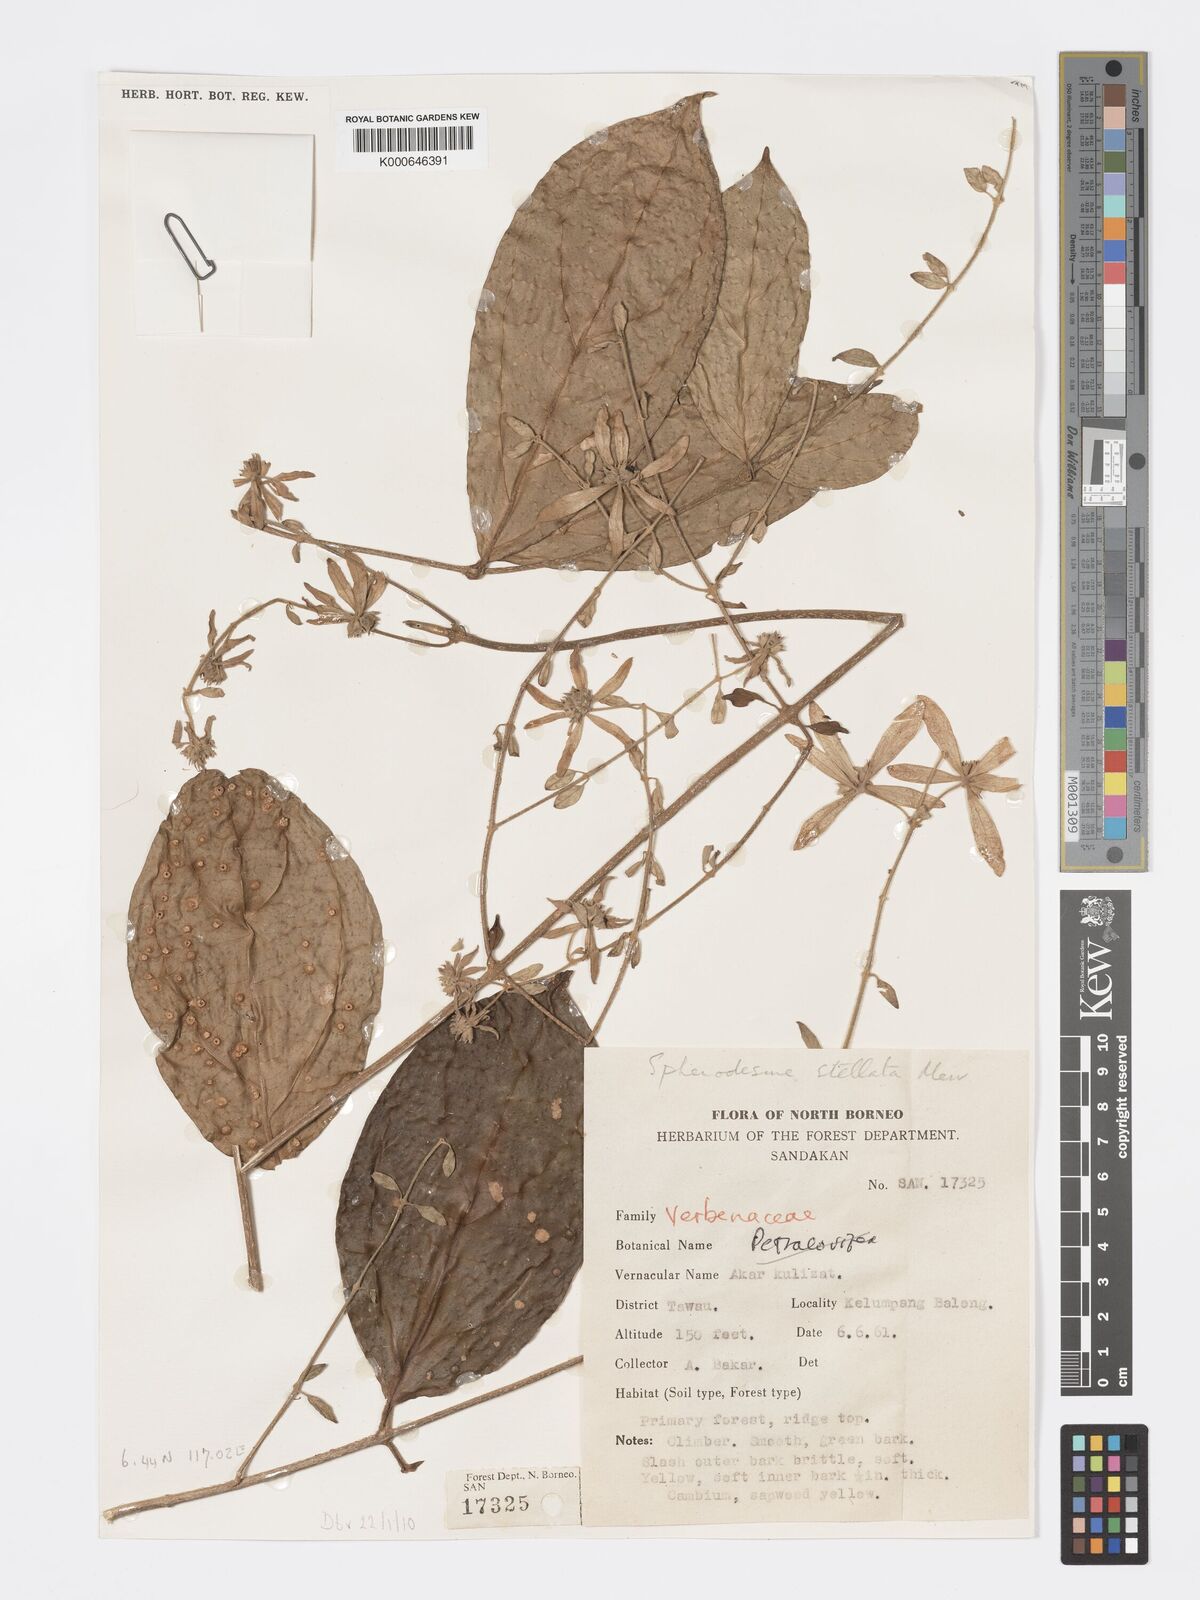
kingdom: Plantae
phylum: Tracheophyta
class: Magnoliopsida
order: Lamiales
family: Lamiaceae
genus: Sphenodesme
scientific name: Sphenodesme stellata
